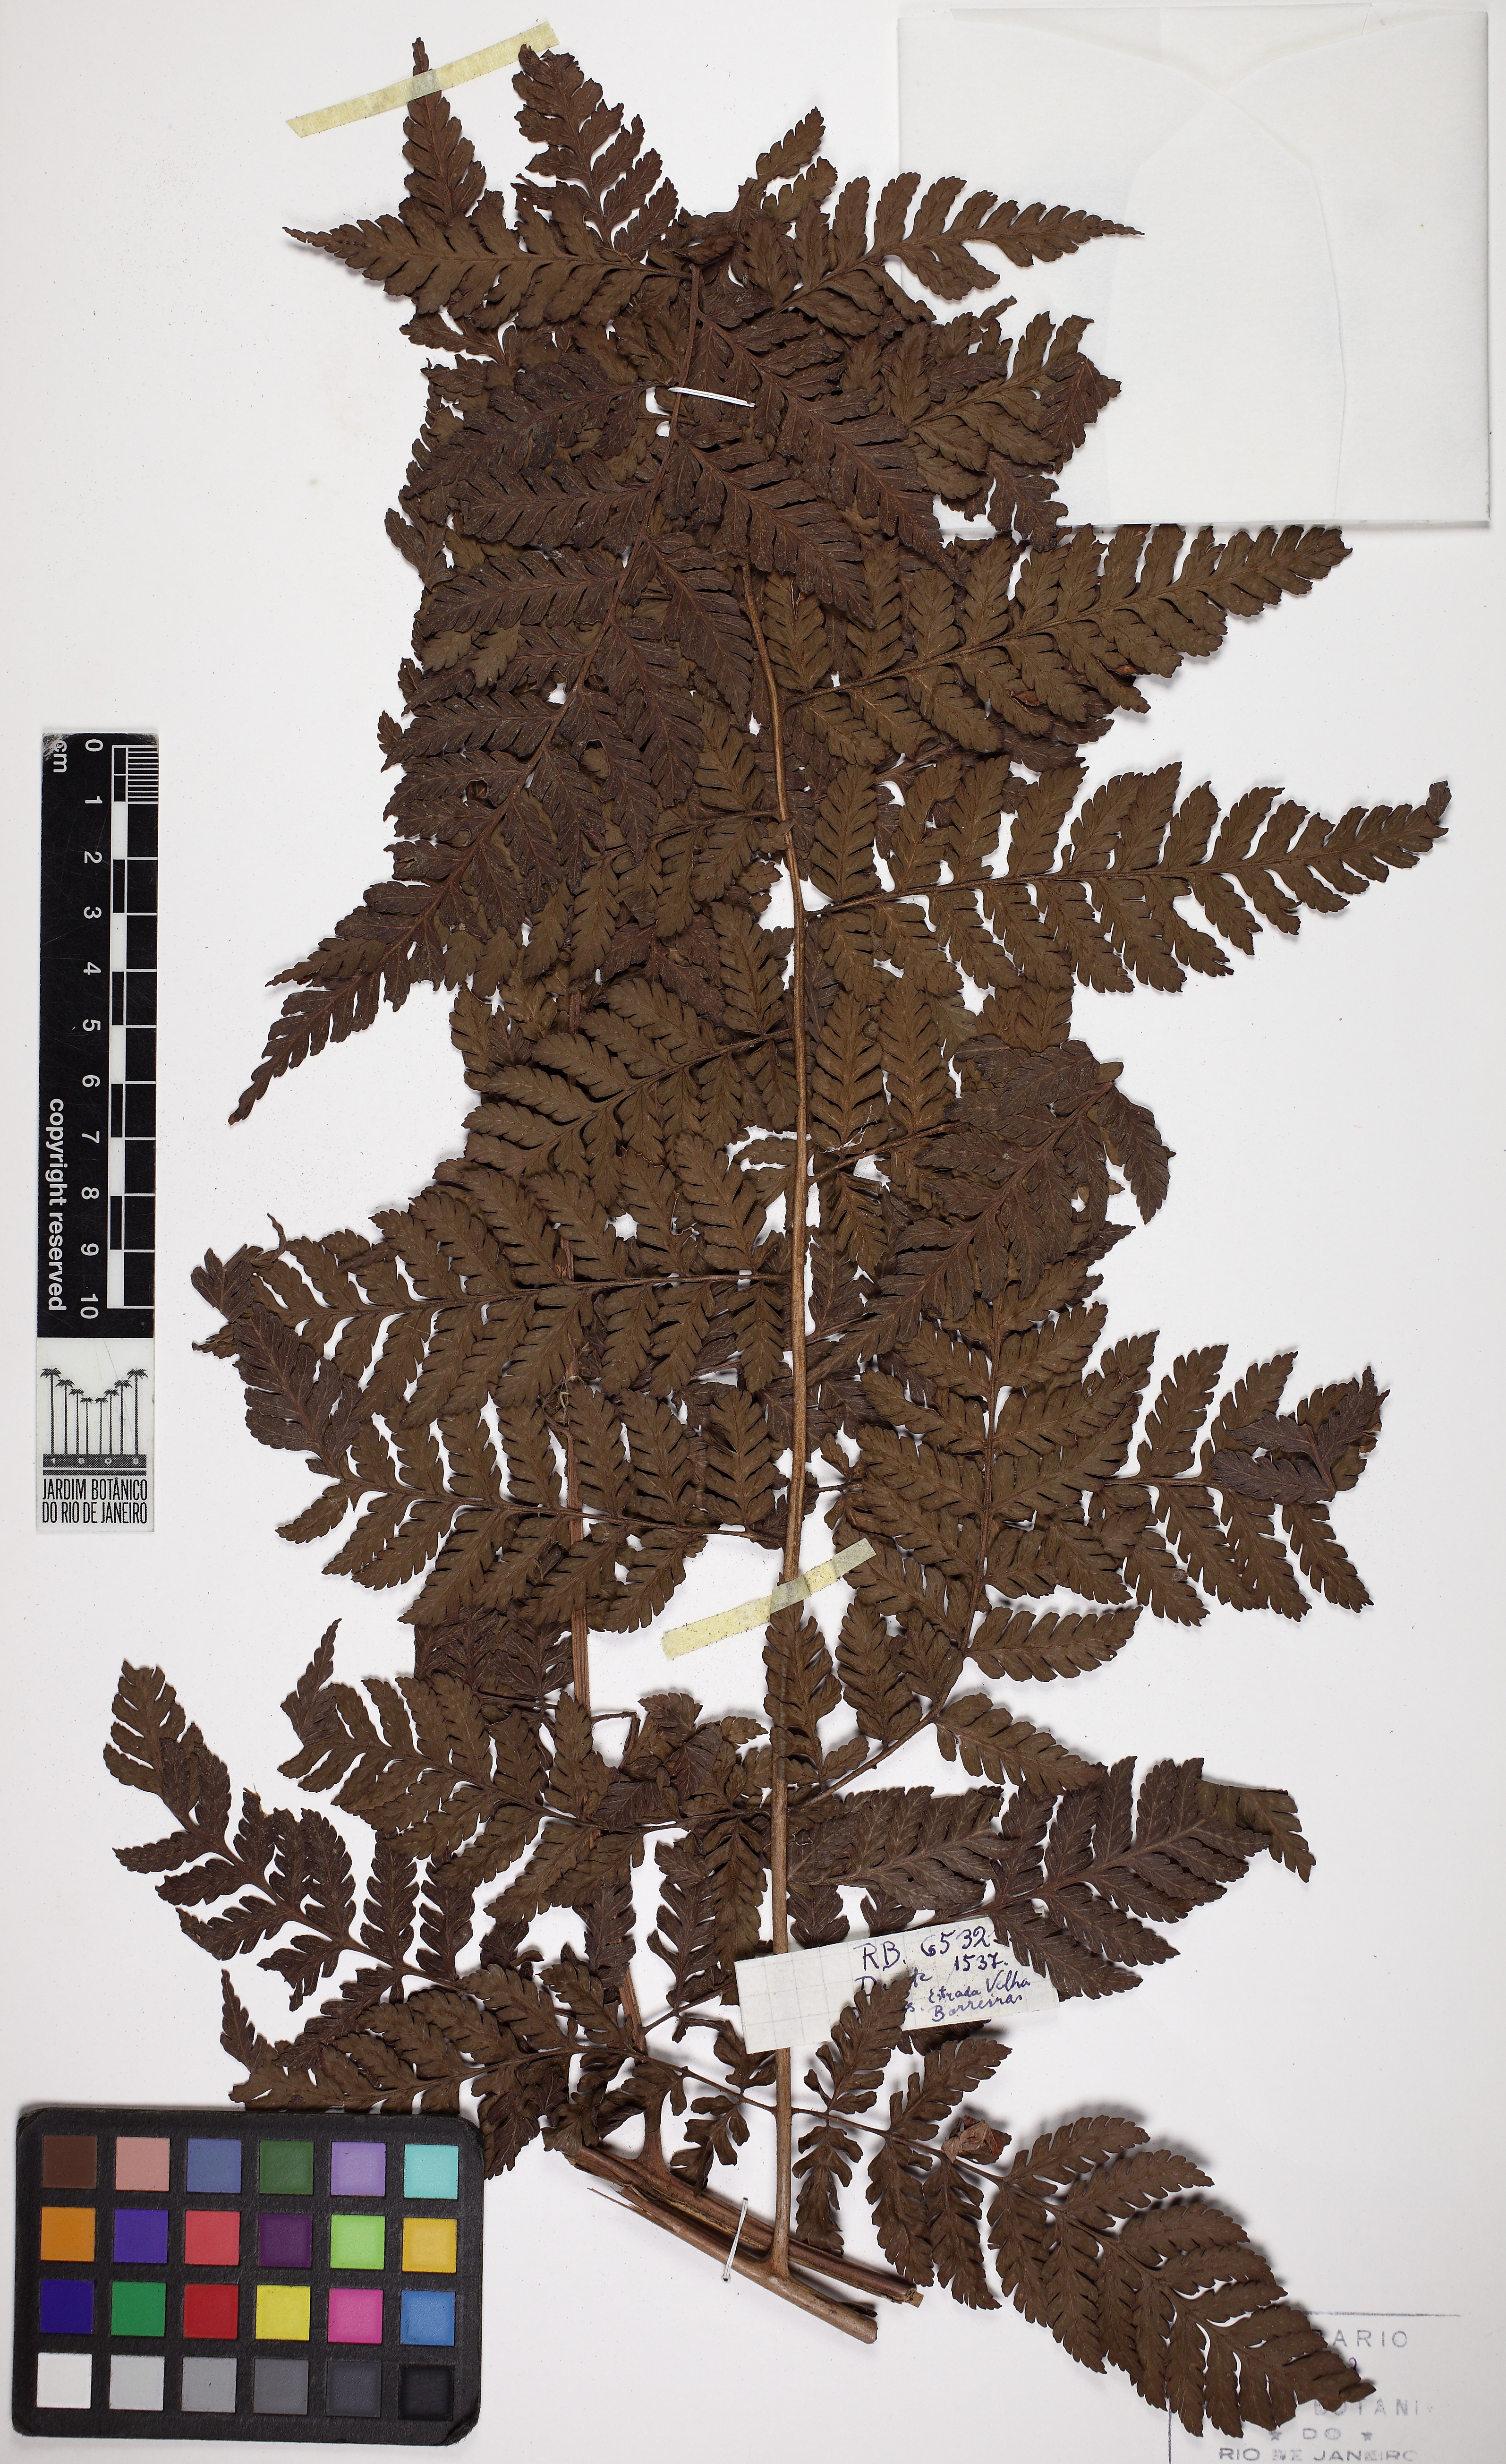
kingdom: Plantae
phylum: Tracheophyta
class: Polypodiopsida
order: Polypodiales
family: Dryopteridaceae
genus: Polybotrya
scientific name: Polybotrya cylindrica
